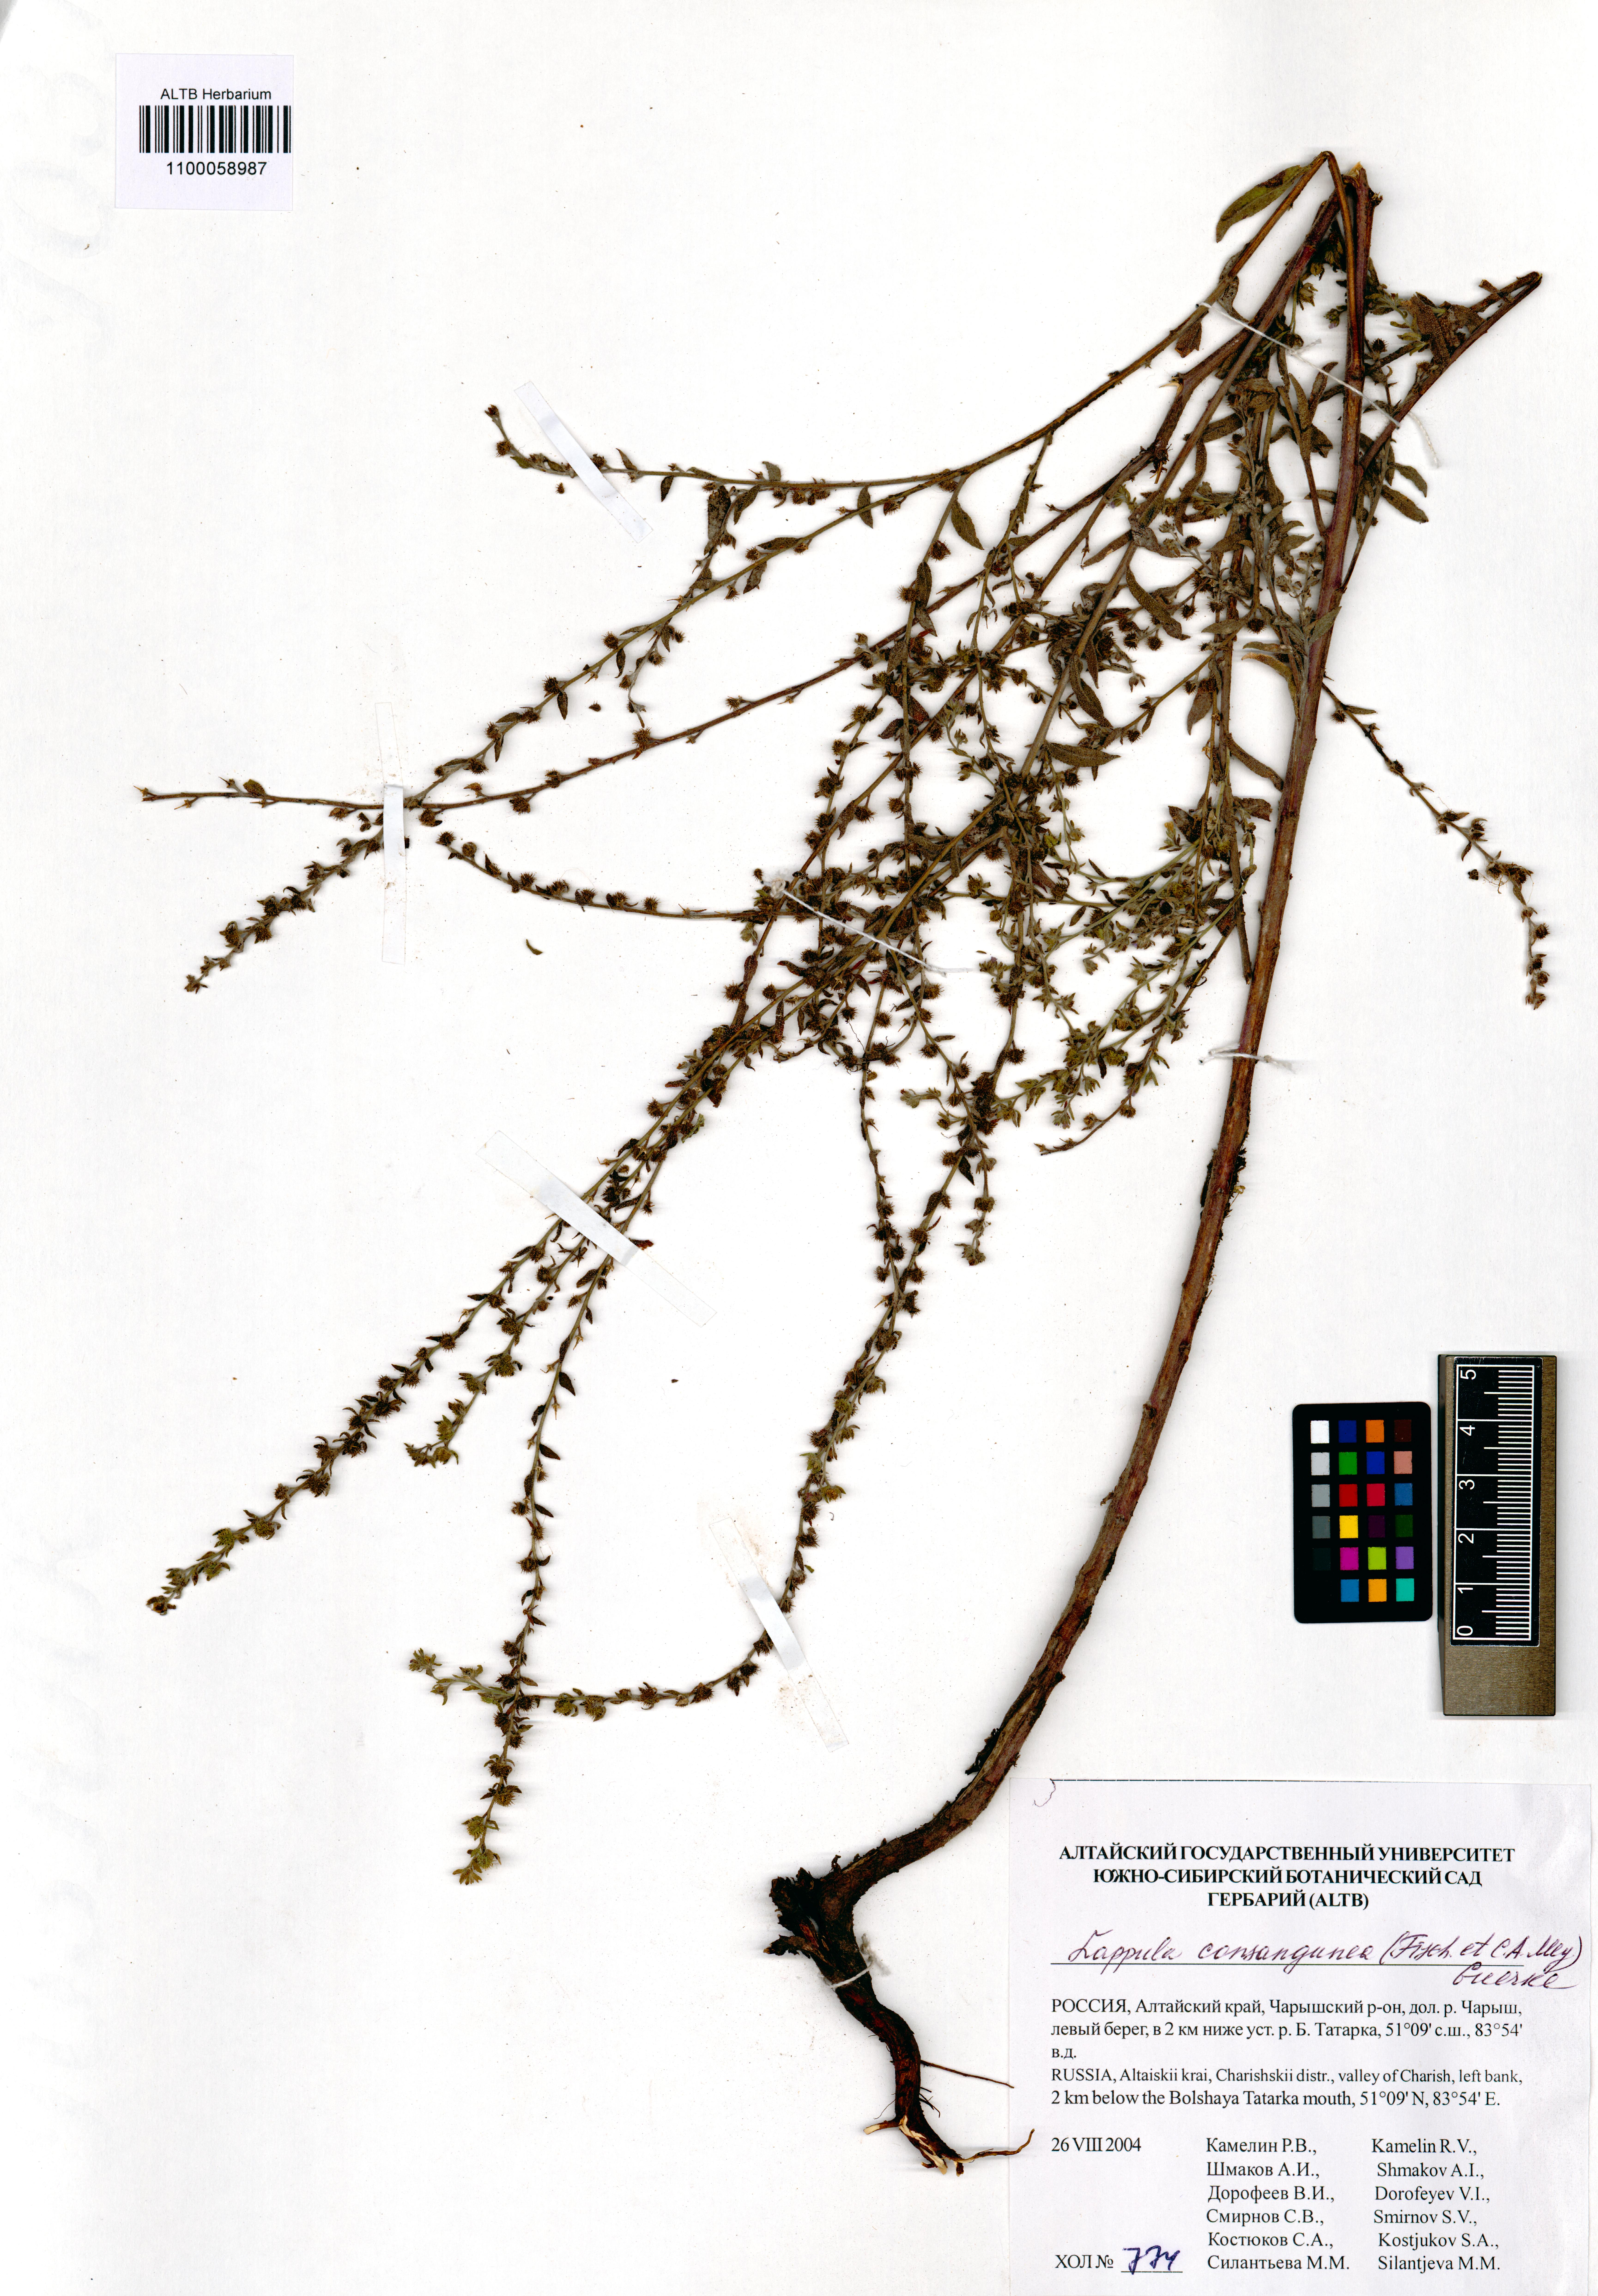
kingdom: Plantae
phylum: Tracheophyta
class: Magnoliopsida
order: Boraginales
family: Boraginaceae
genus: Lappula
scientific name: Lappula squarrosa
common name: European stickseed
